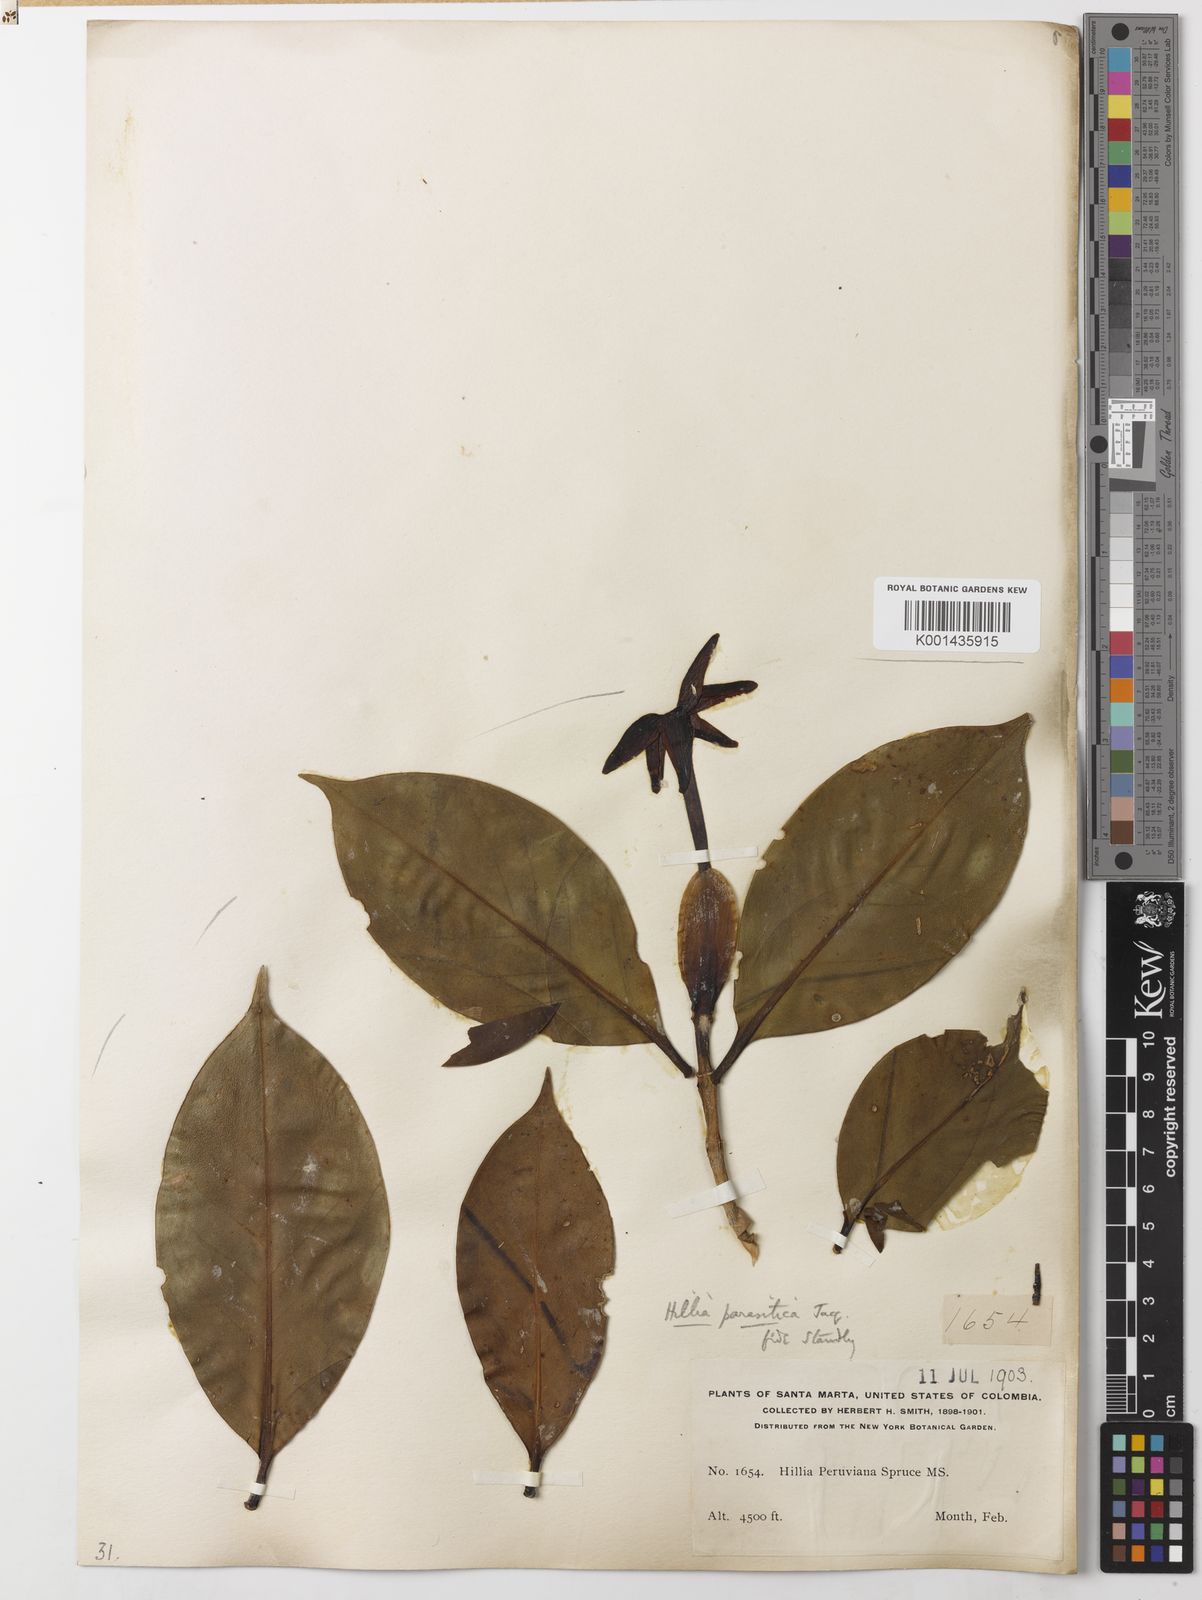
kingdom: Plantae
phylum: Tracheophyta
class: Magnoliopsida
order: Gentianales
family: Rubiaceae
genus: Hillia
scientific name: Hillia parasitica
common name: Morning star
